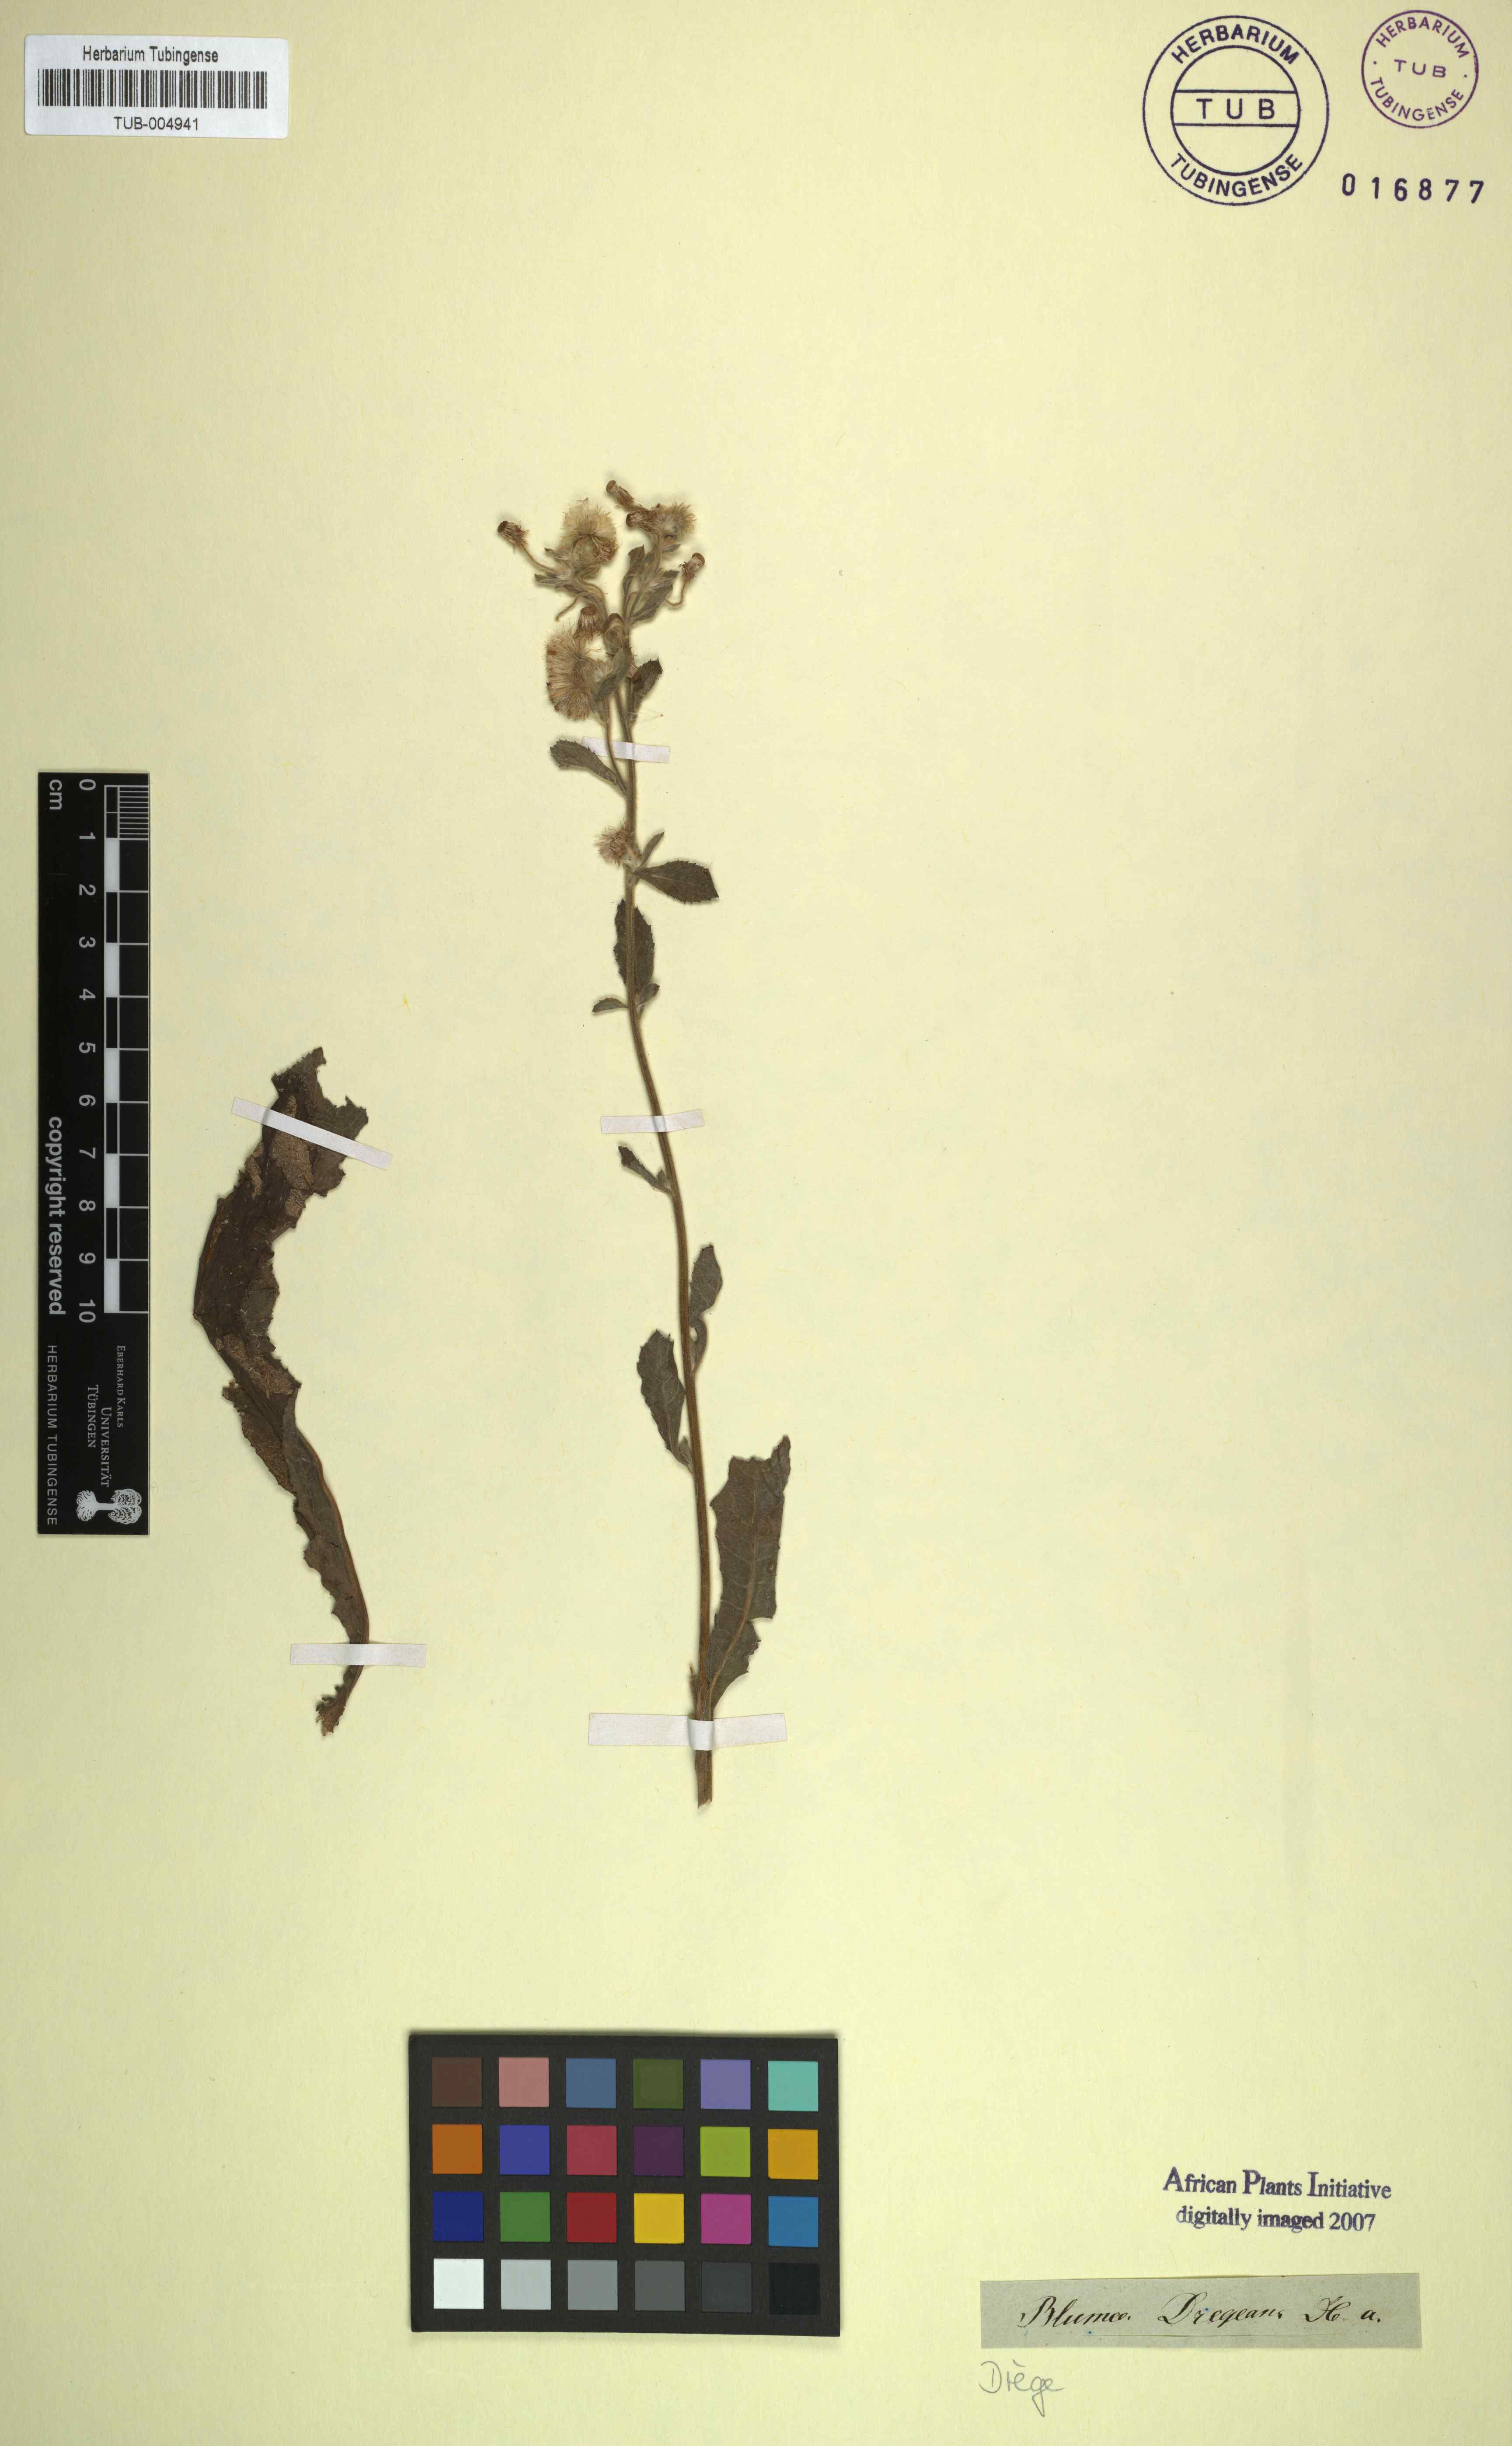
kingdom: Plantae
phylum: Tracheophyta
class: Magnoliopsida
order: Asterales
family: Asteraceae
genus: Blumea
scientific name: Blumea lacera
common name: Malay blumea
